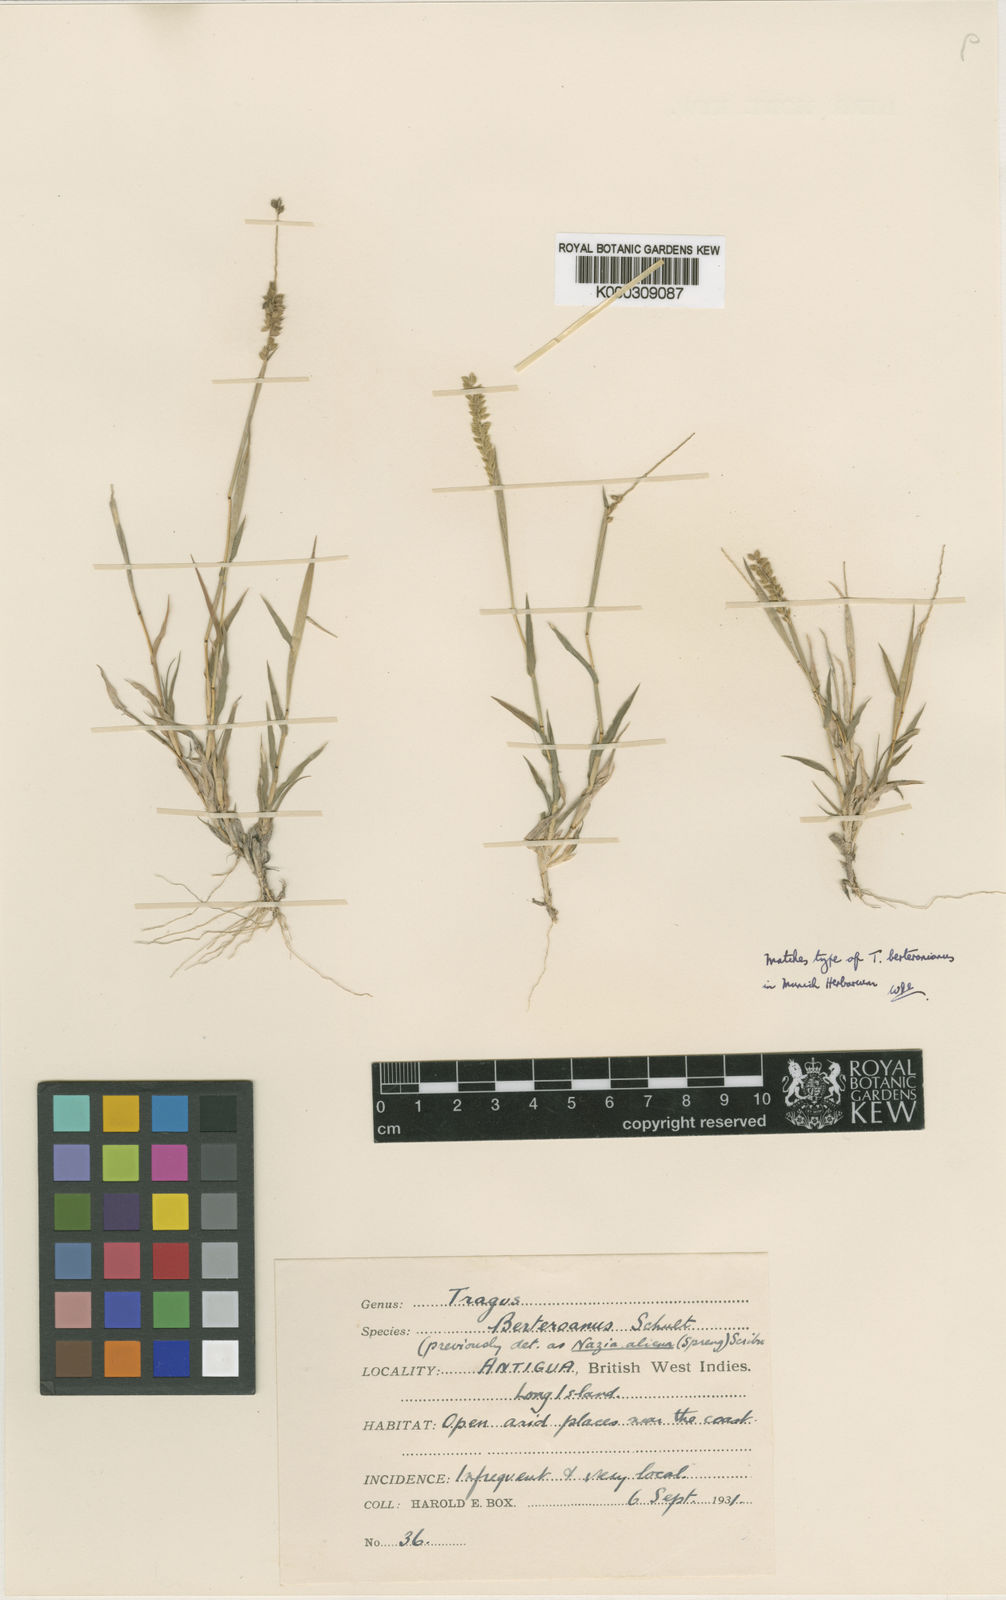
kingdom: Plantae
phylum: Tracheophyta
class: Liliopsida
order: Poales
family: Poaceae
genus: Tragus
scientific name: Tragus berteronianus
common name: African bur-grass
